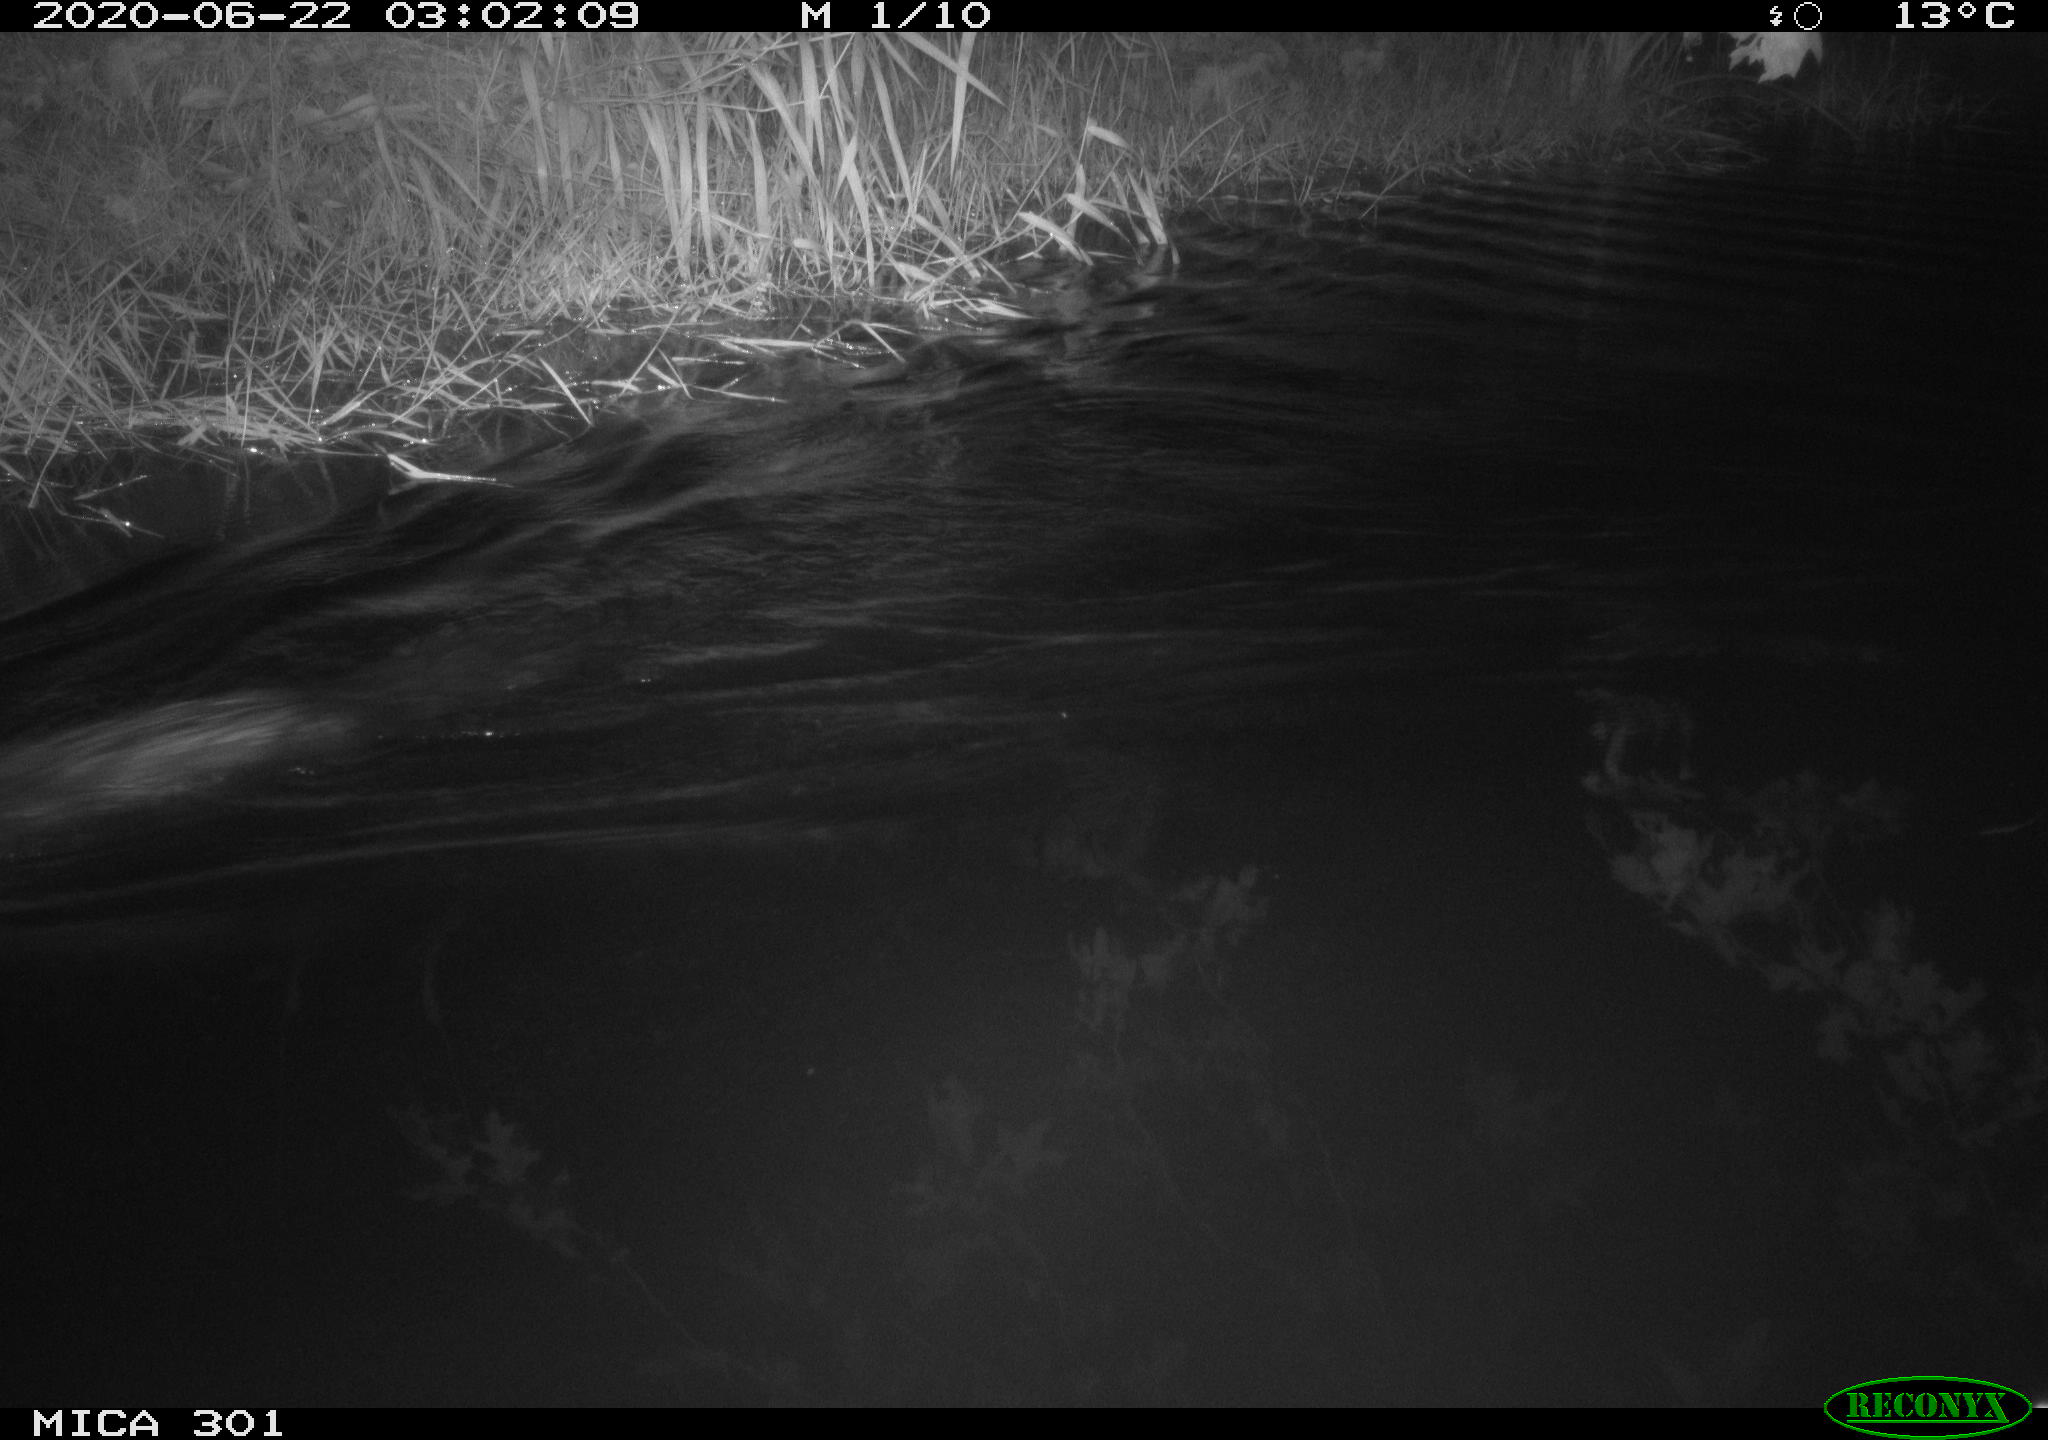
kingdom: Animalia
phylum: Chordata
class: Mammalia
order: Rodentia
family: Castoridae
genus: Castor
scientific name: Castor fiber
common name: Eurasian beaver
